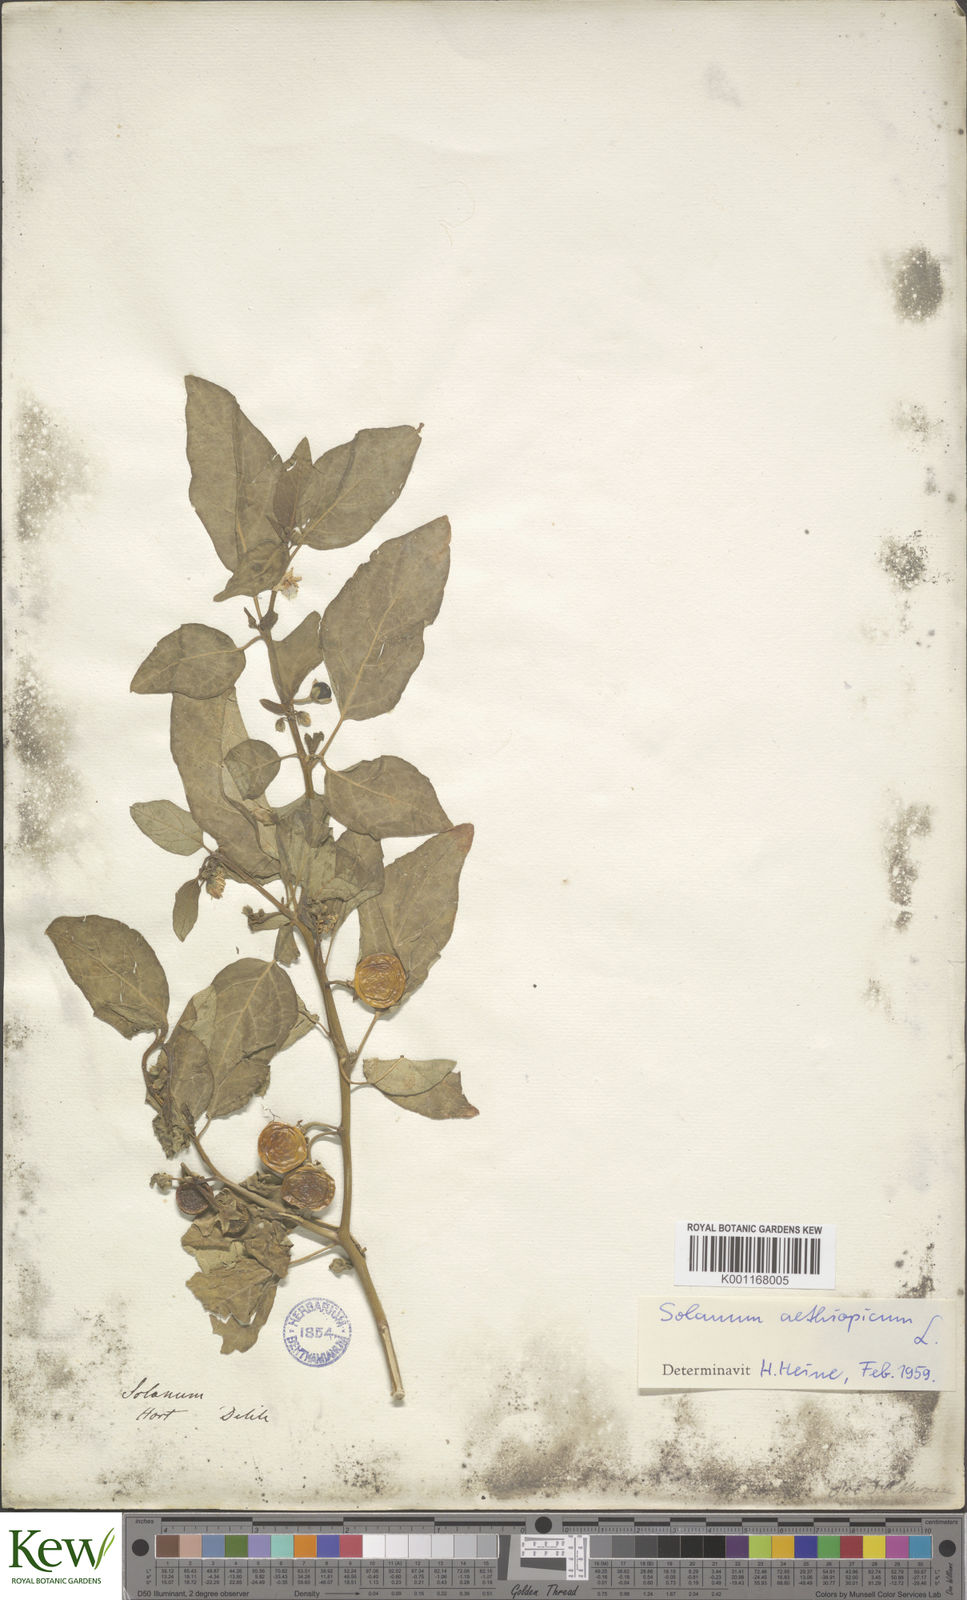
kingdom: Plantae
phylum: Tracheophyta
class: Magnoliopsida
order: Solanales
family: Solanaceae
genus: Solanum
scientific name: Solanum aethiopicum
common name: Gilo
